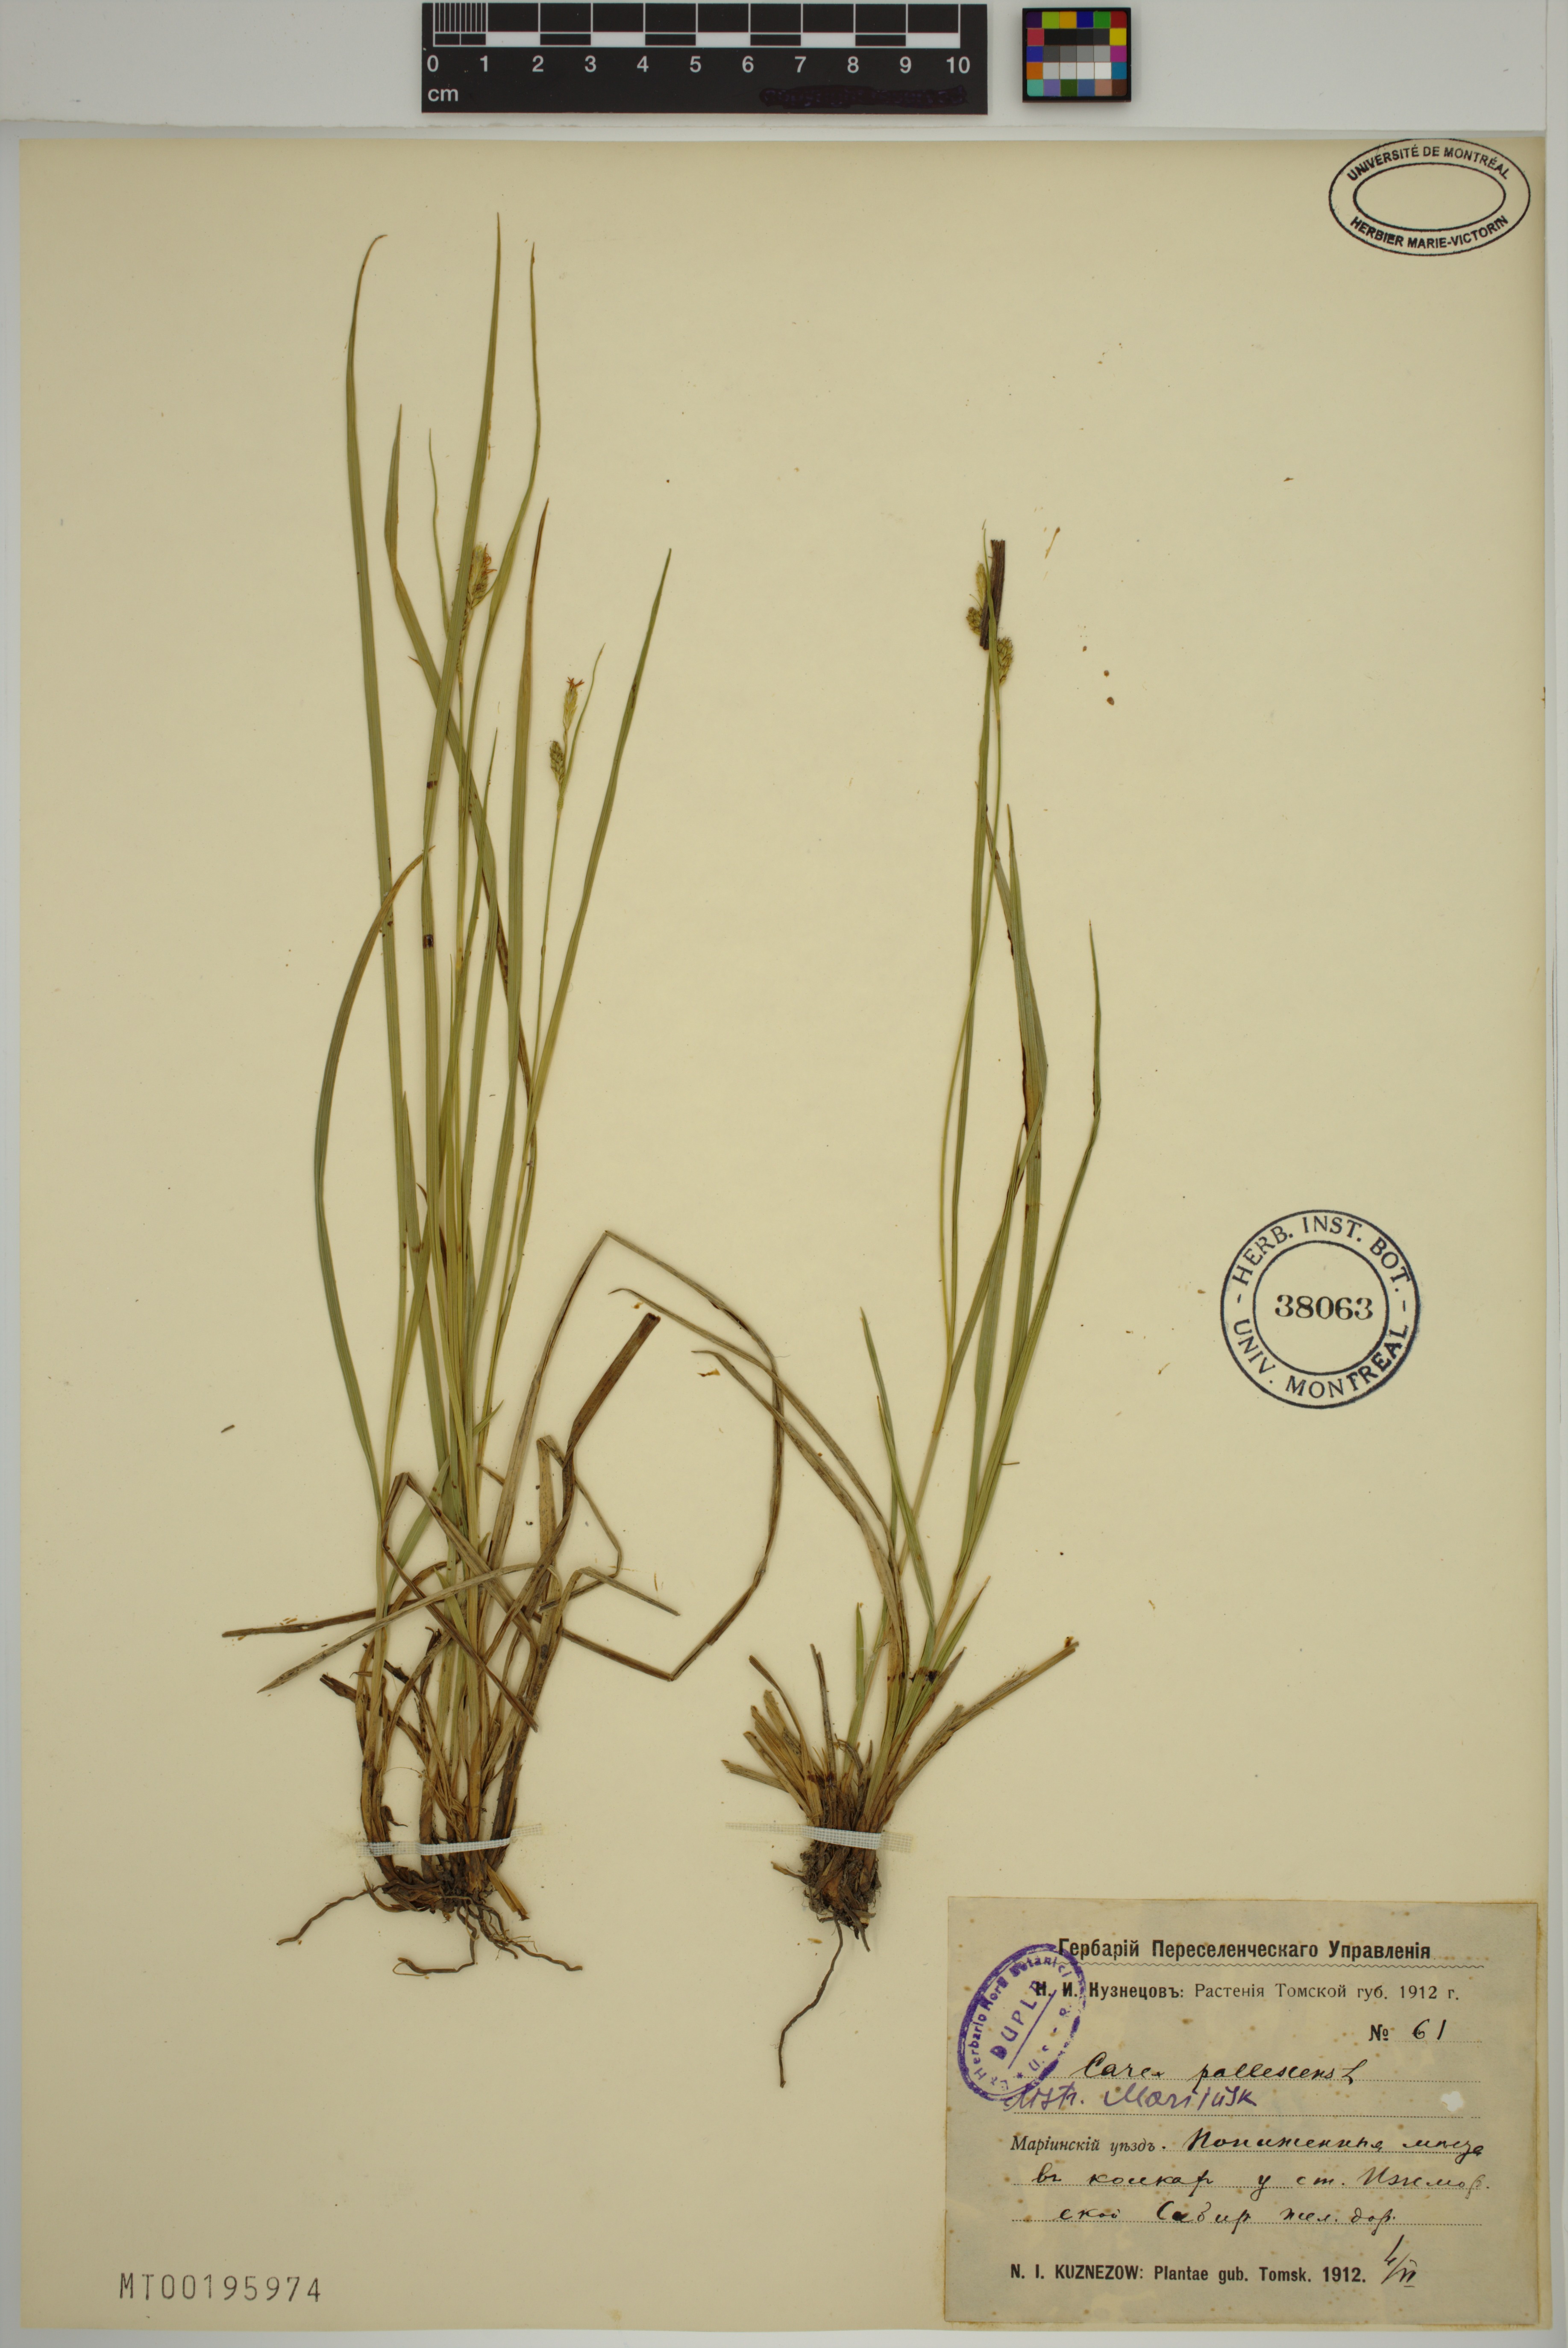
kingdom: Plantae
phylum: Tracheophyta
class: Liliopsida
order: Poales
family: Cyperaceae
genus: Carex
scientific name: Carex pallescens
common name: Pale sedge
